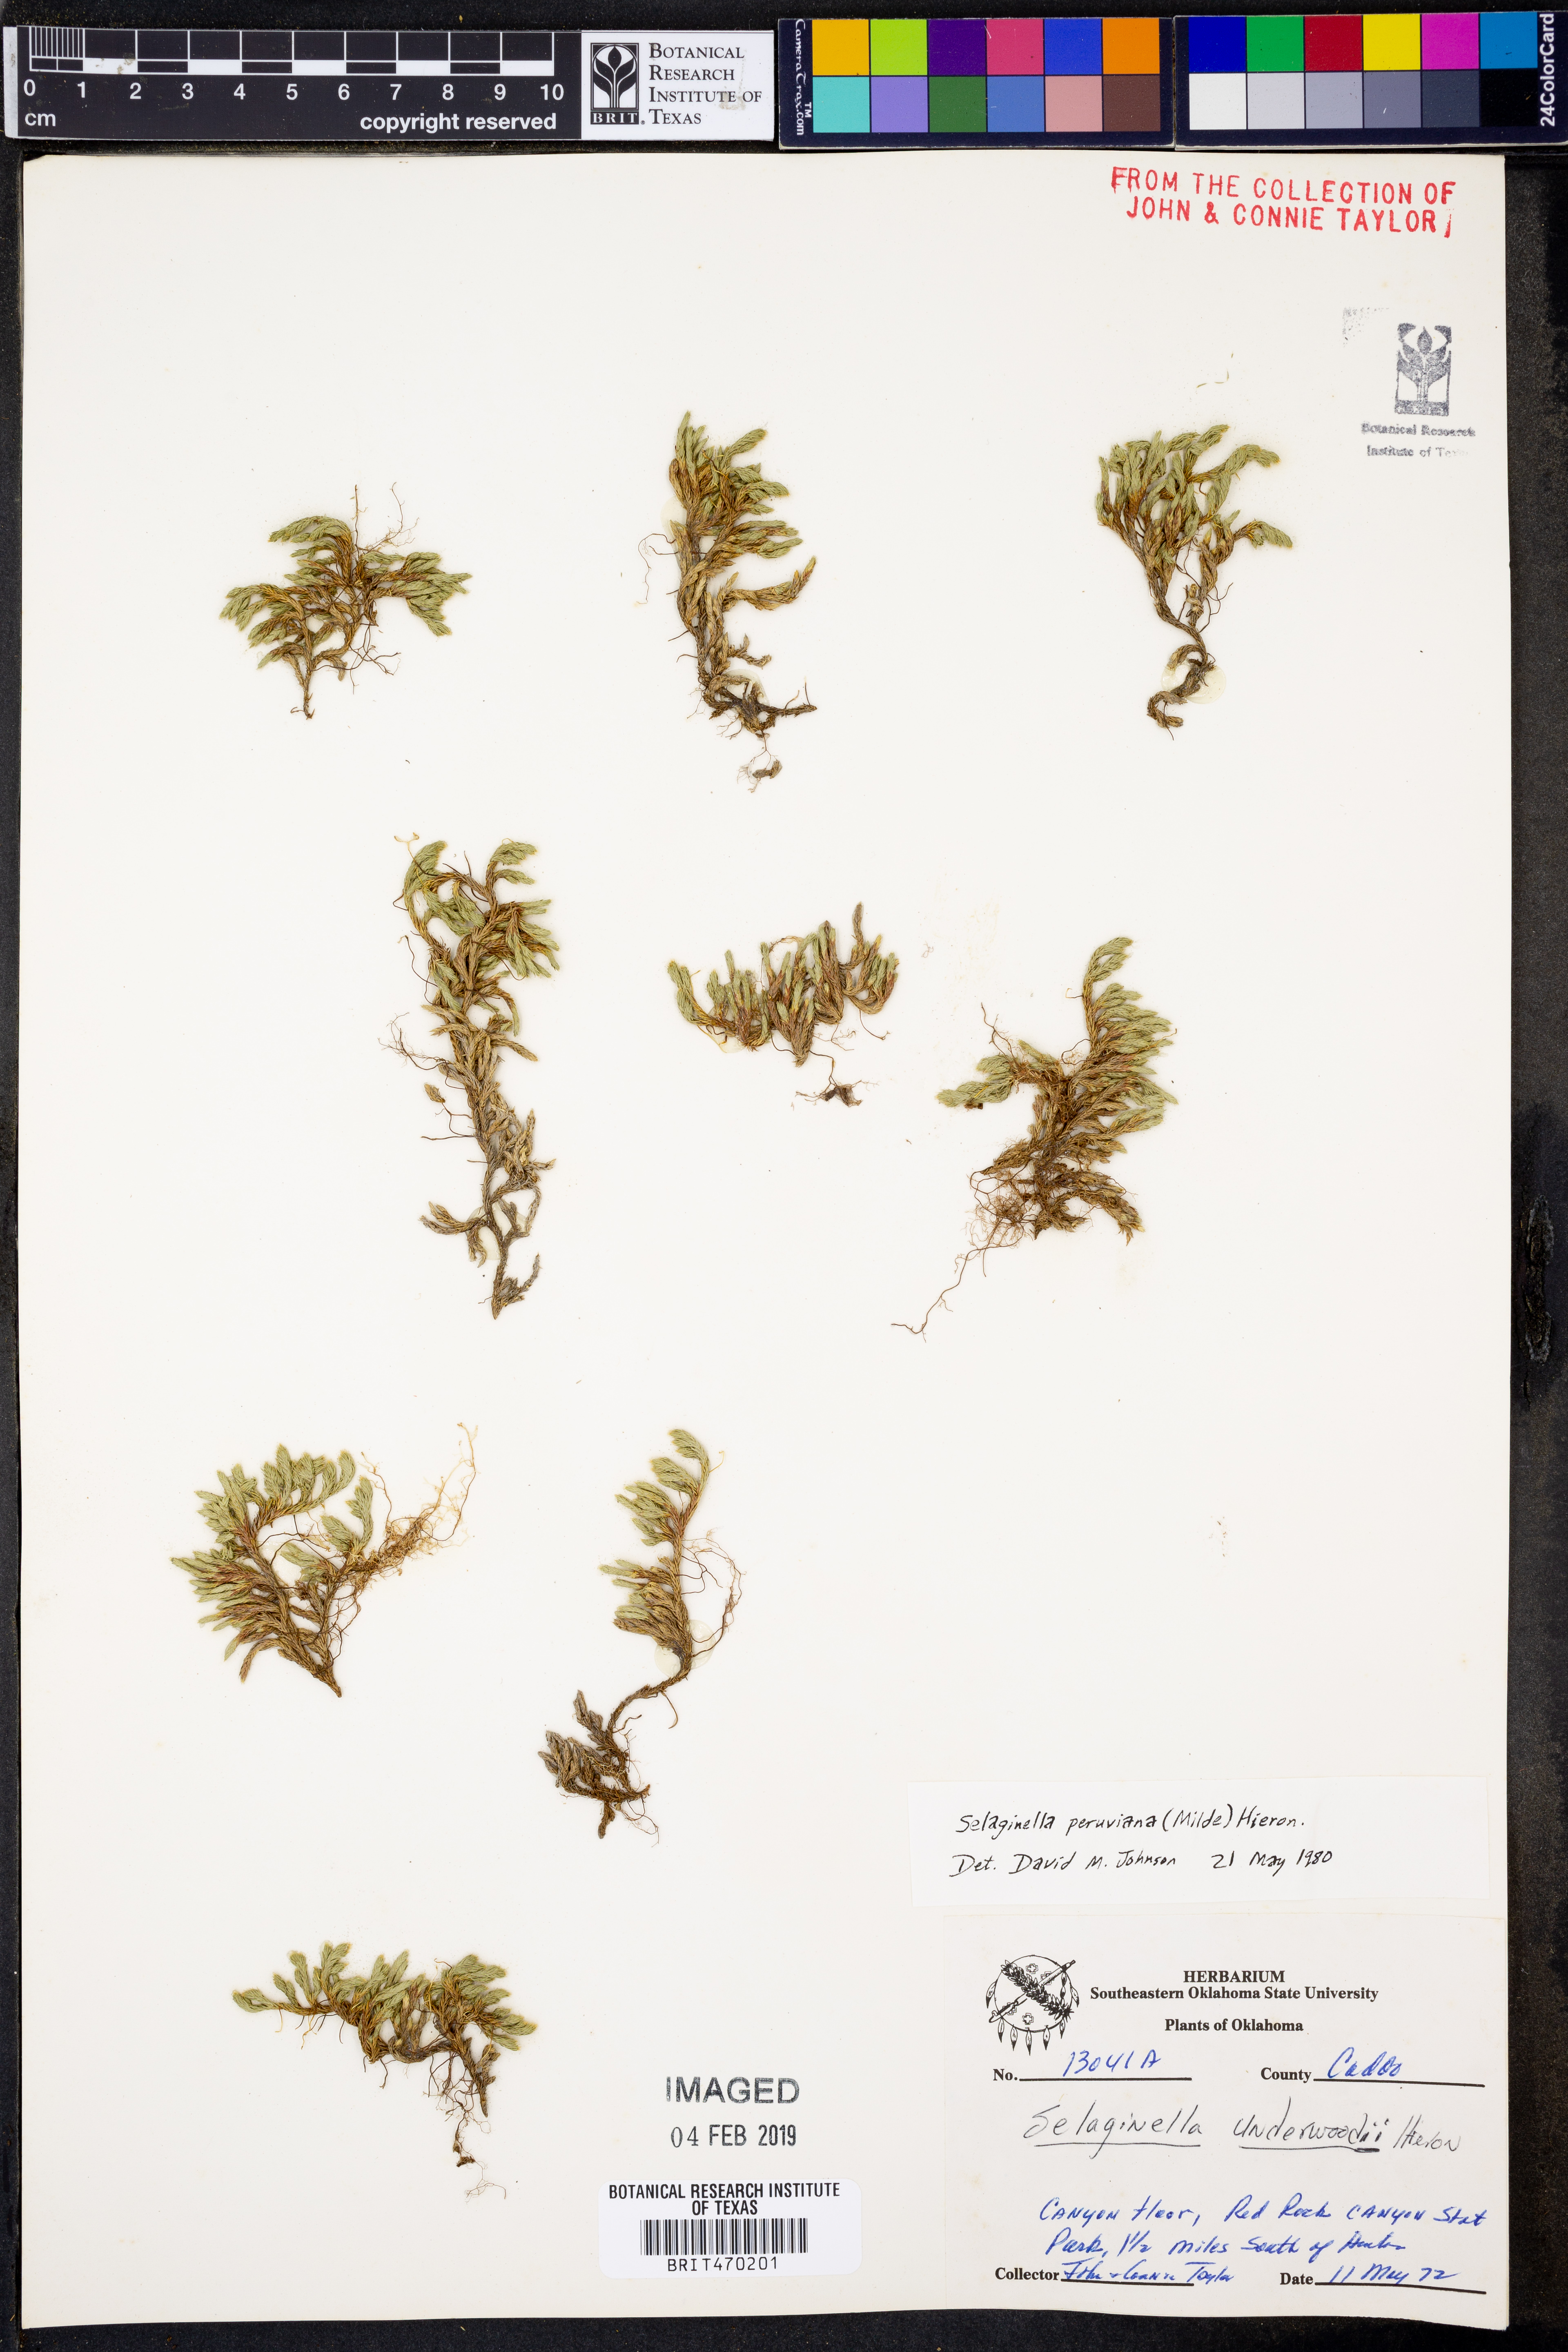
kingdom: Plantae
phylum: Tracheophyta
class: Lycopodiopsida
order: Selaginellales
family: Selaginellaceae
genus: Selaginella
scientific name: Selaginella underwoodii
